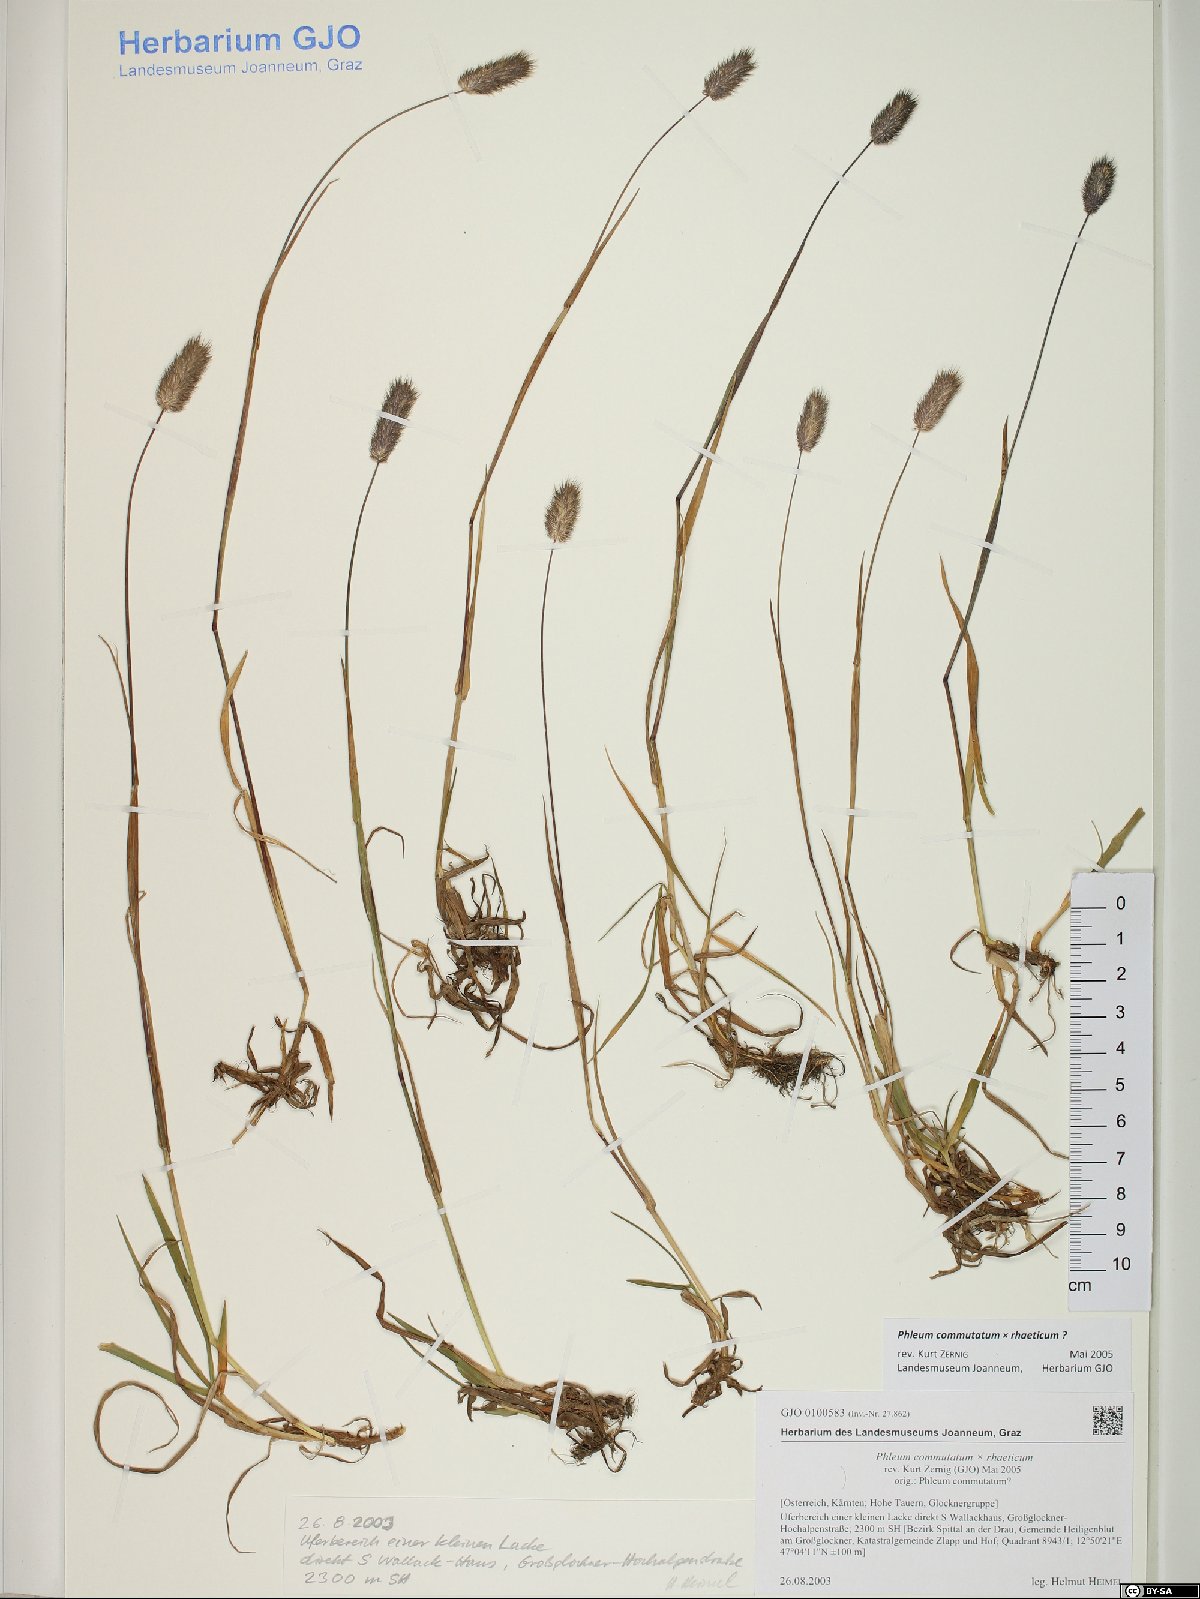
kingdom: Plantae
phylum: Tracheophyta
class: Liliopsida
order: Poales
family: Poaceae
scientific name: Poaceae
